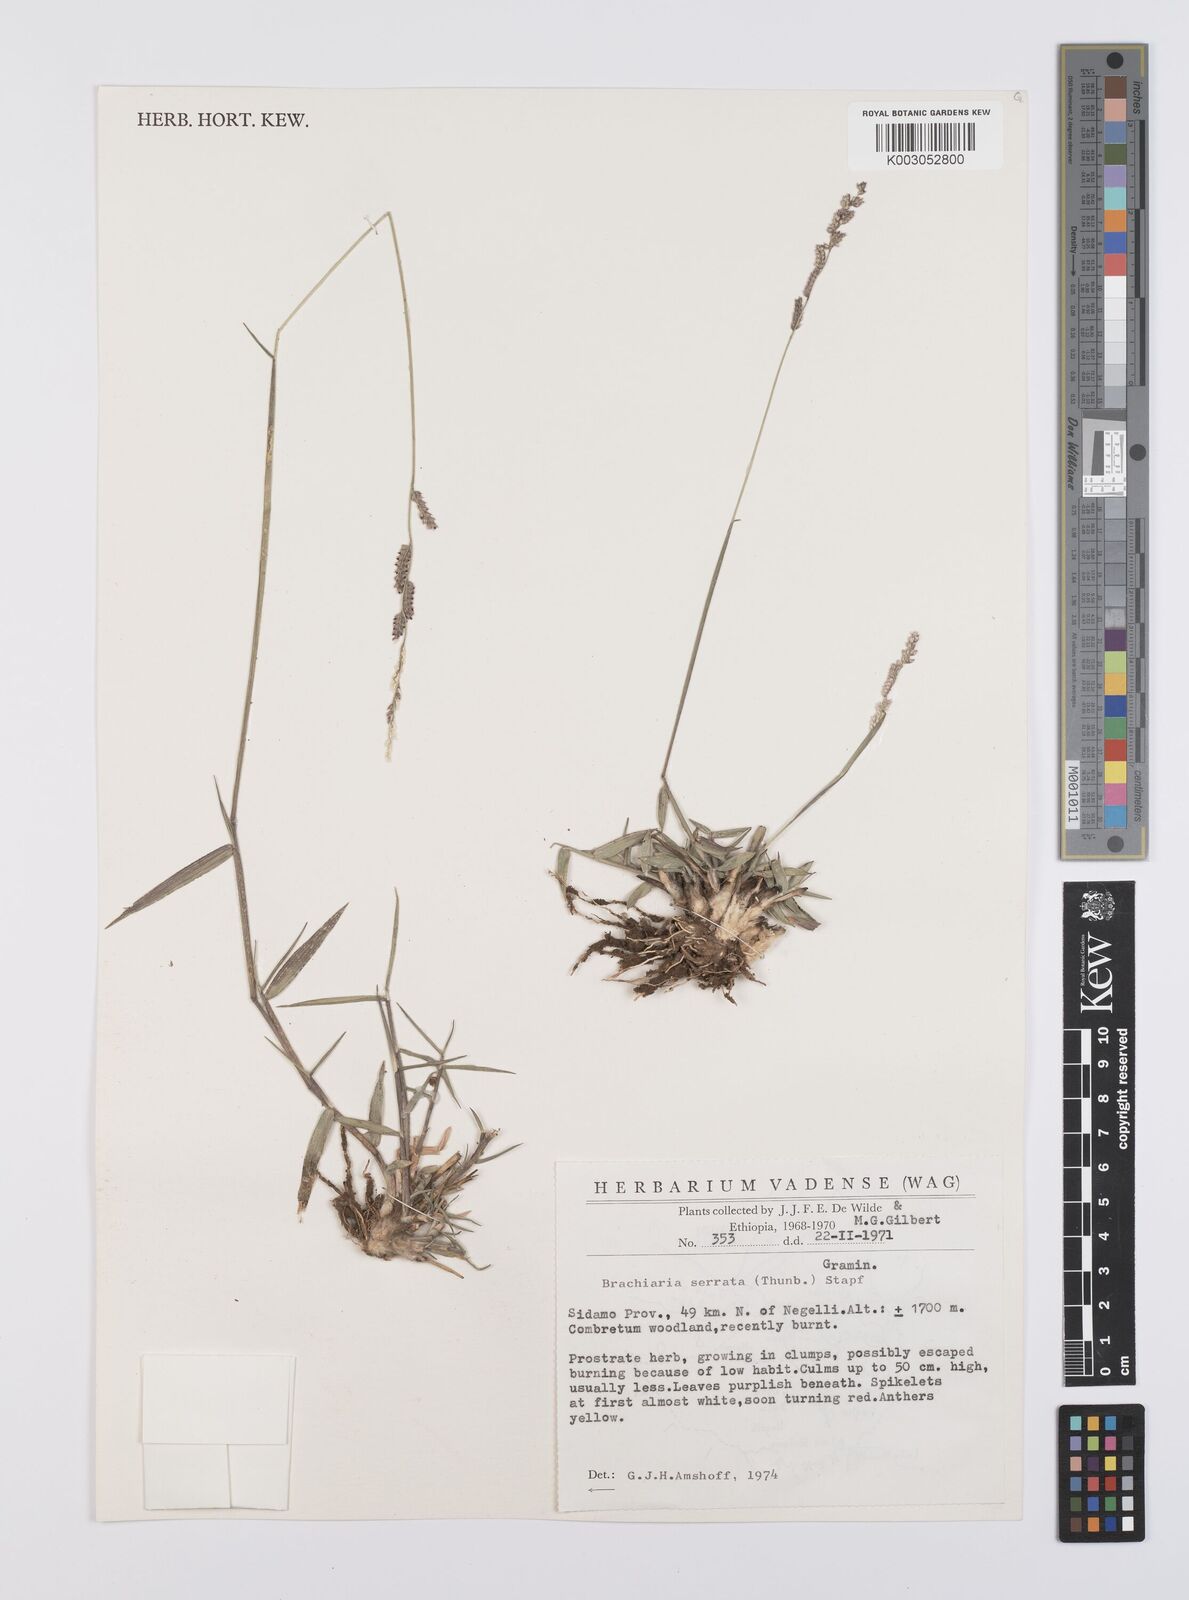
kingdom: Plantae
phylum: Tracheophyta
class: Liliopsida
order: Poales
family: Poaceae
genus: Urochloa
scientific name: Urochloa serrata
